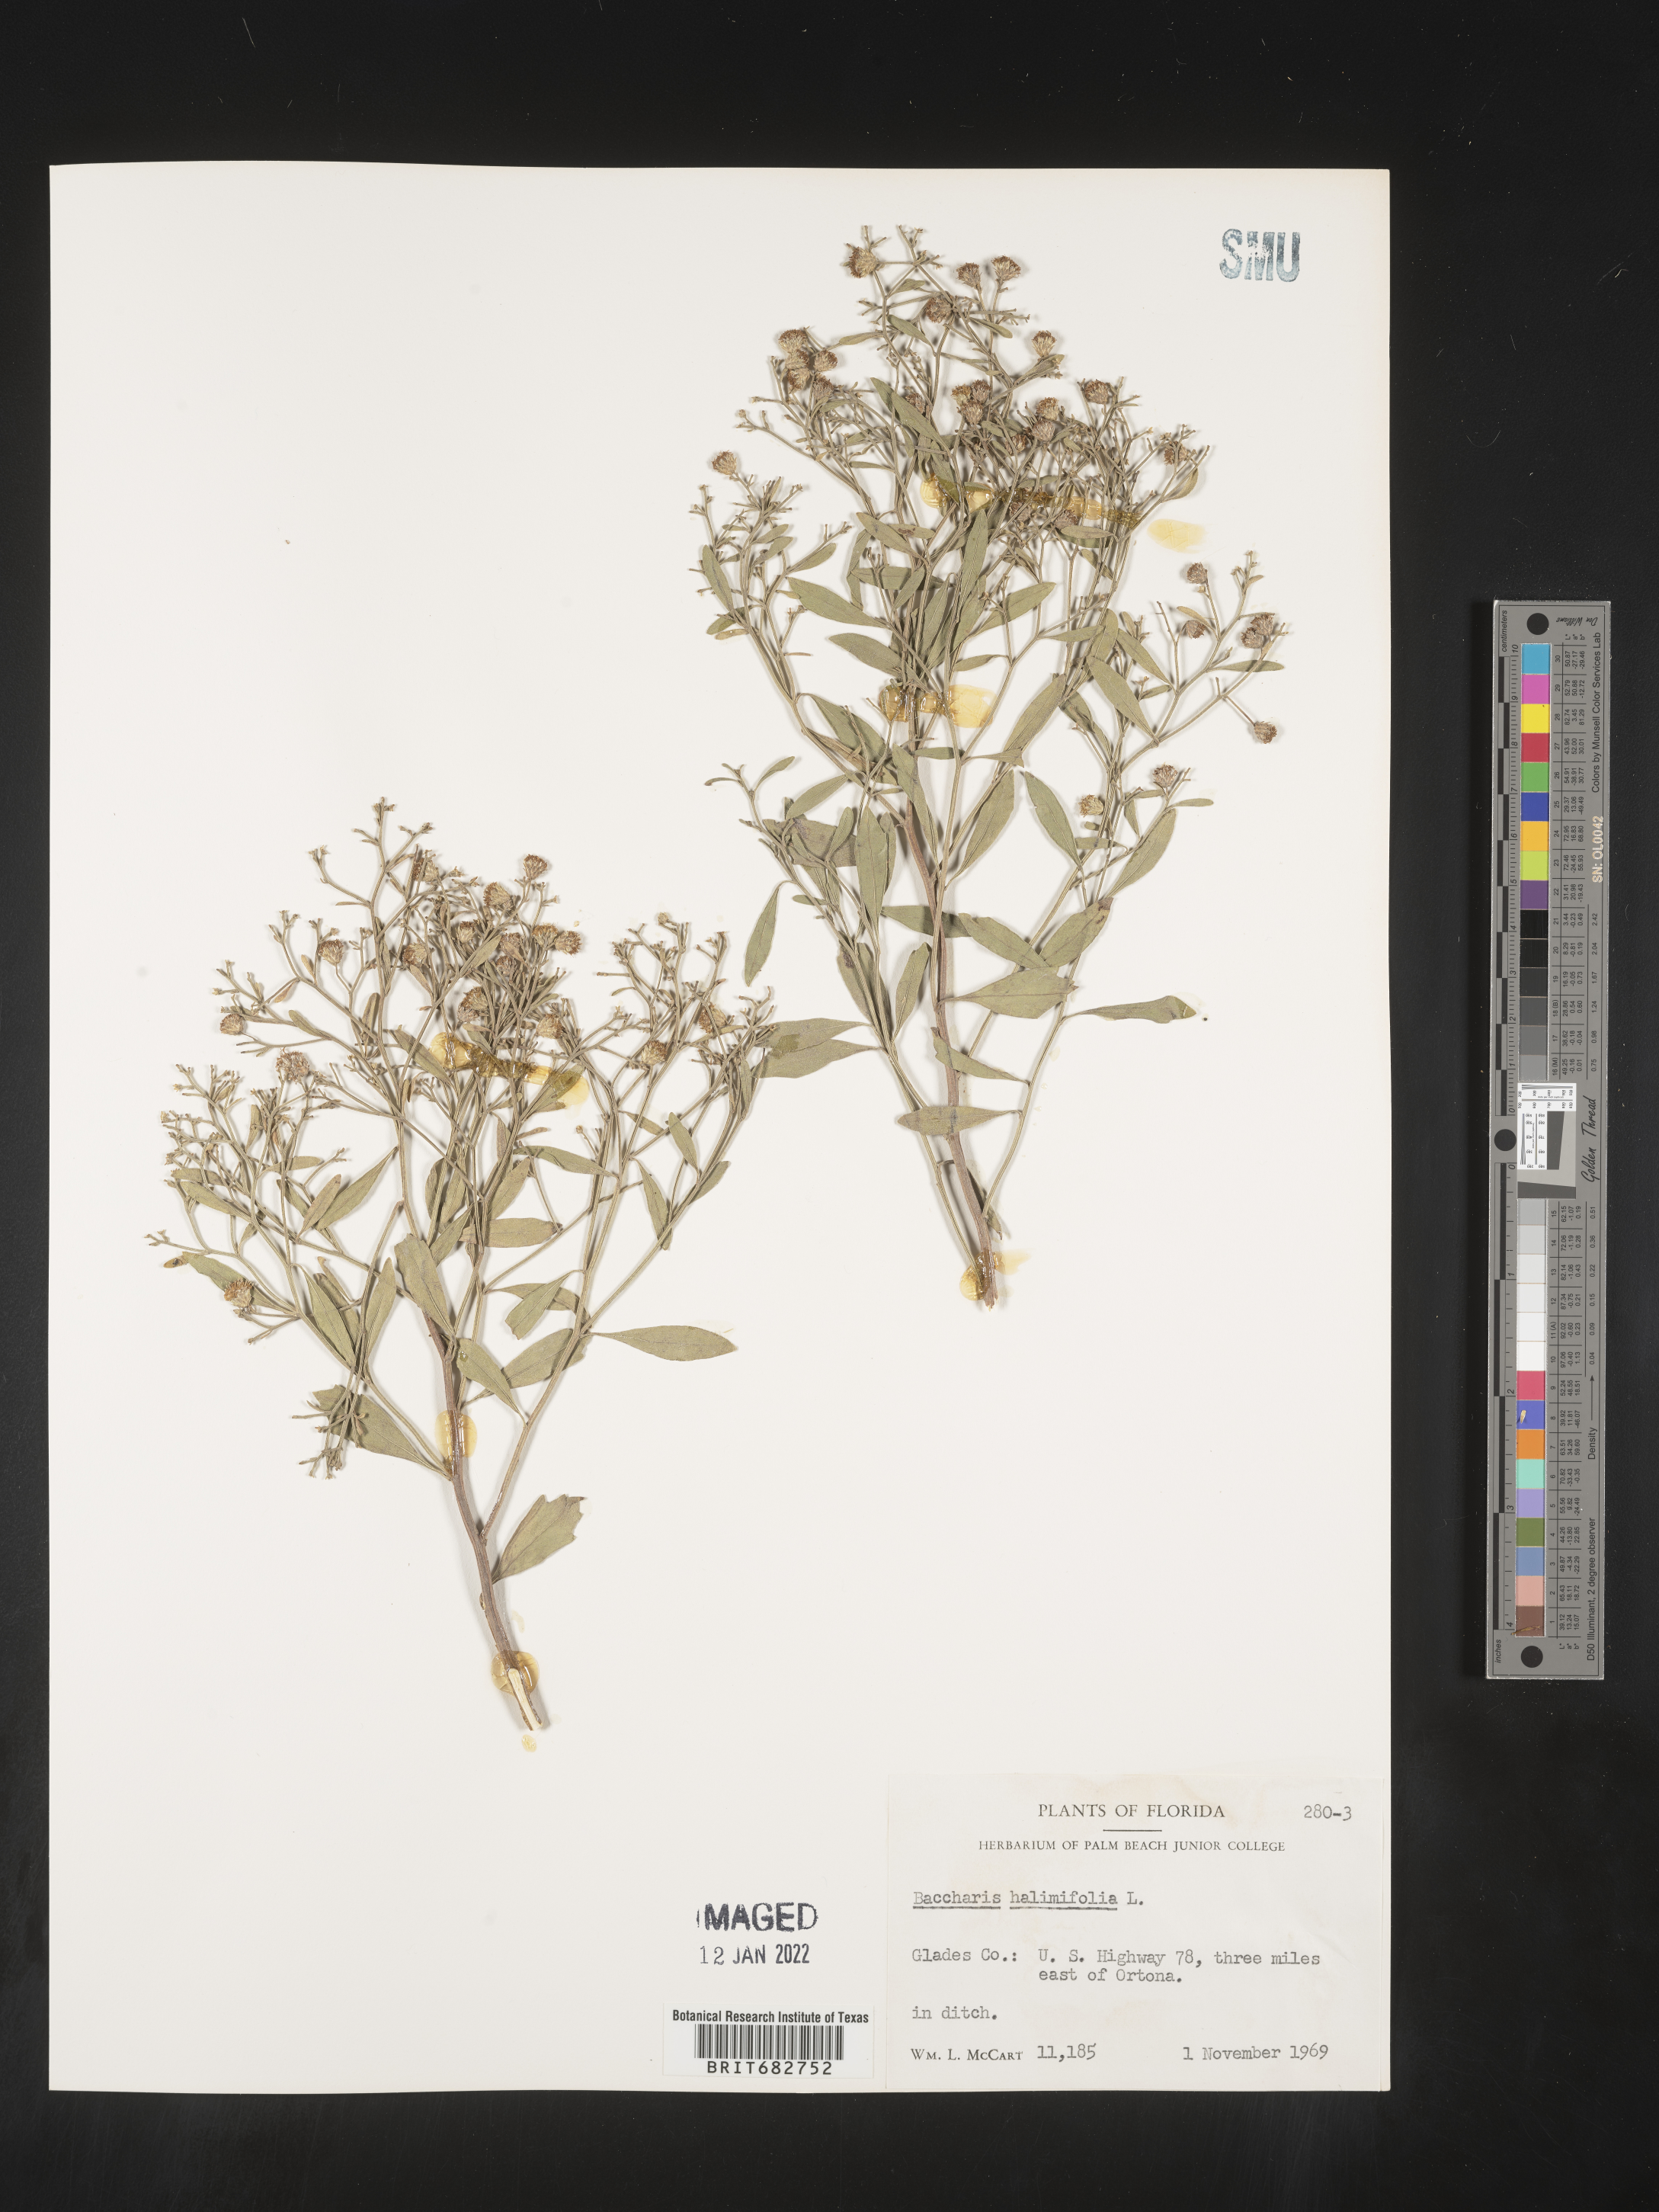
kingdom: Plantae
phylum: Tracheophyta
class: Magnoliopsida
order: Asterales
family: Asteraceae
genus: Nidorella
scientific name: Nidorella ivifolia
